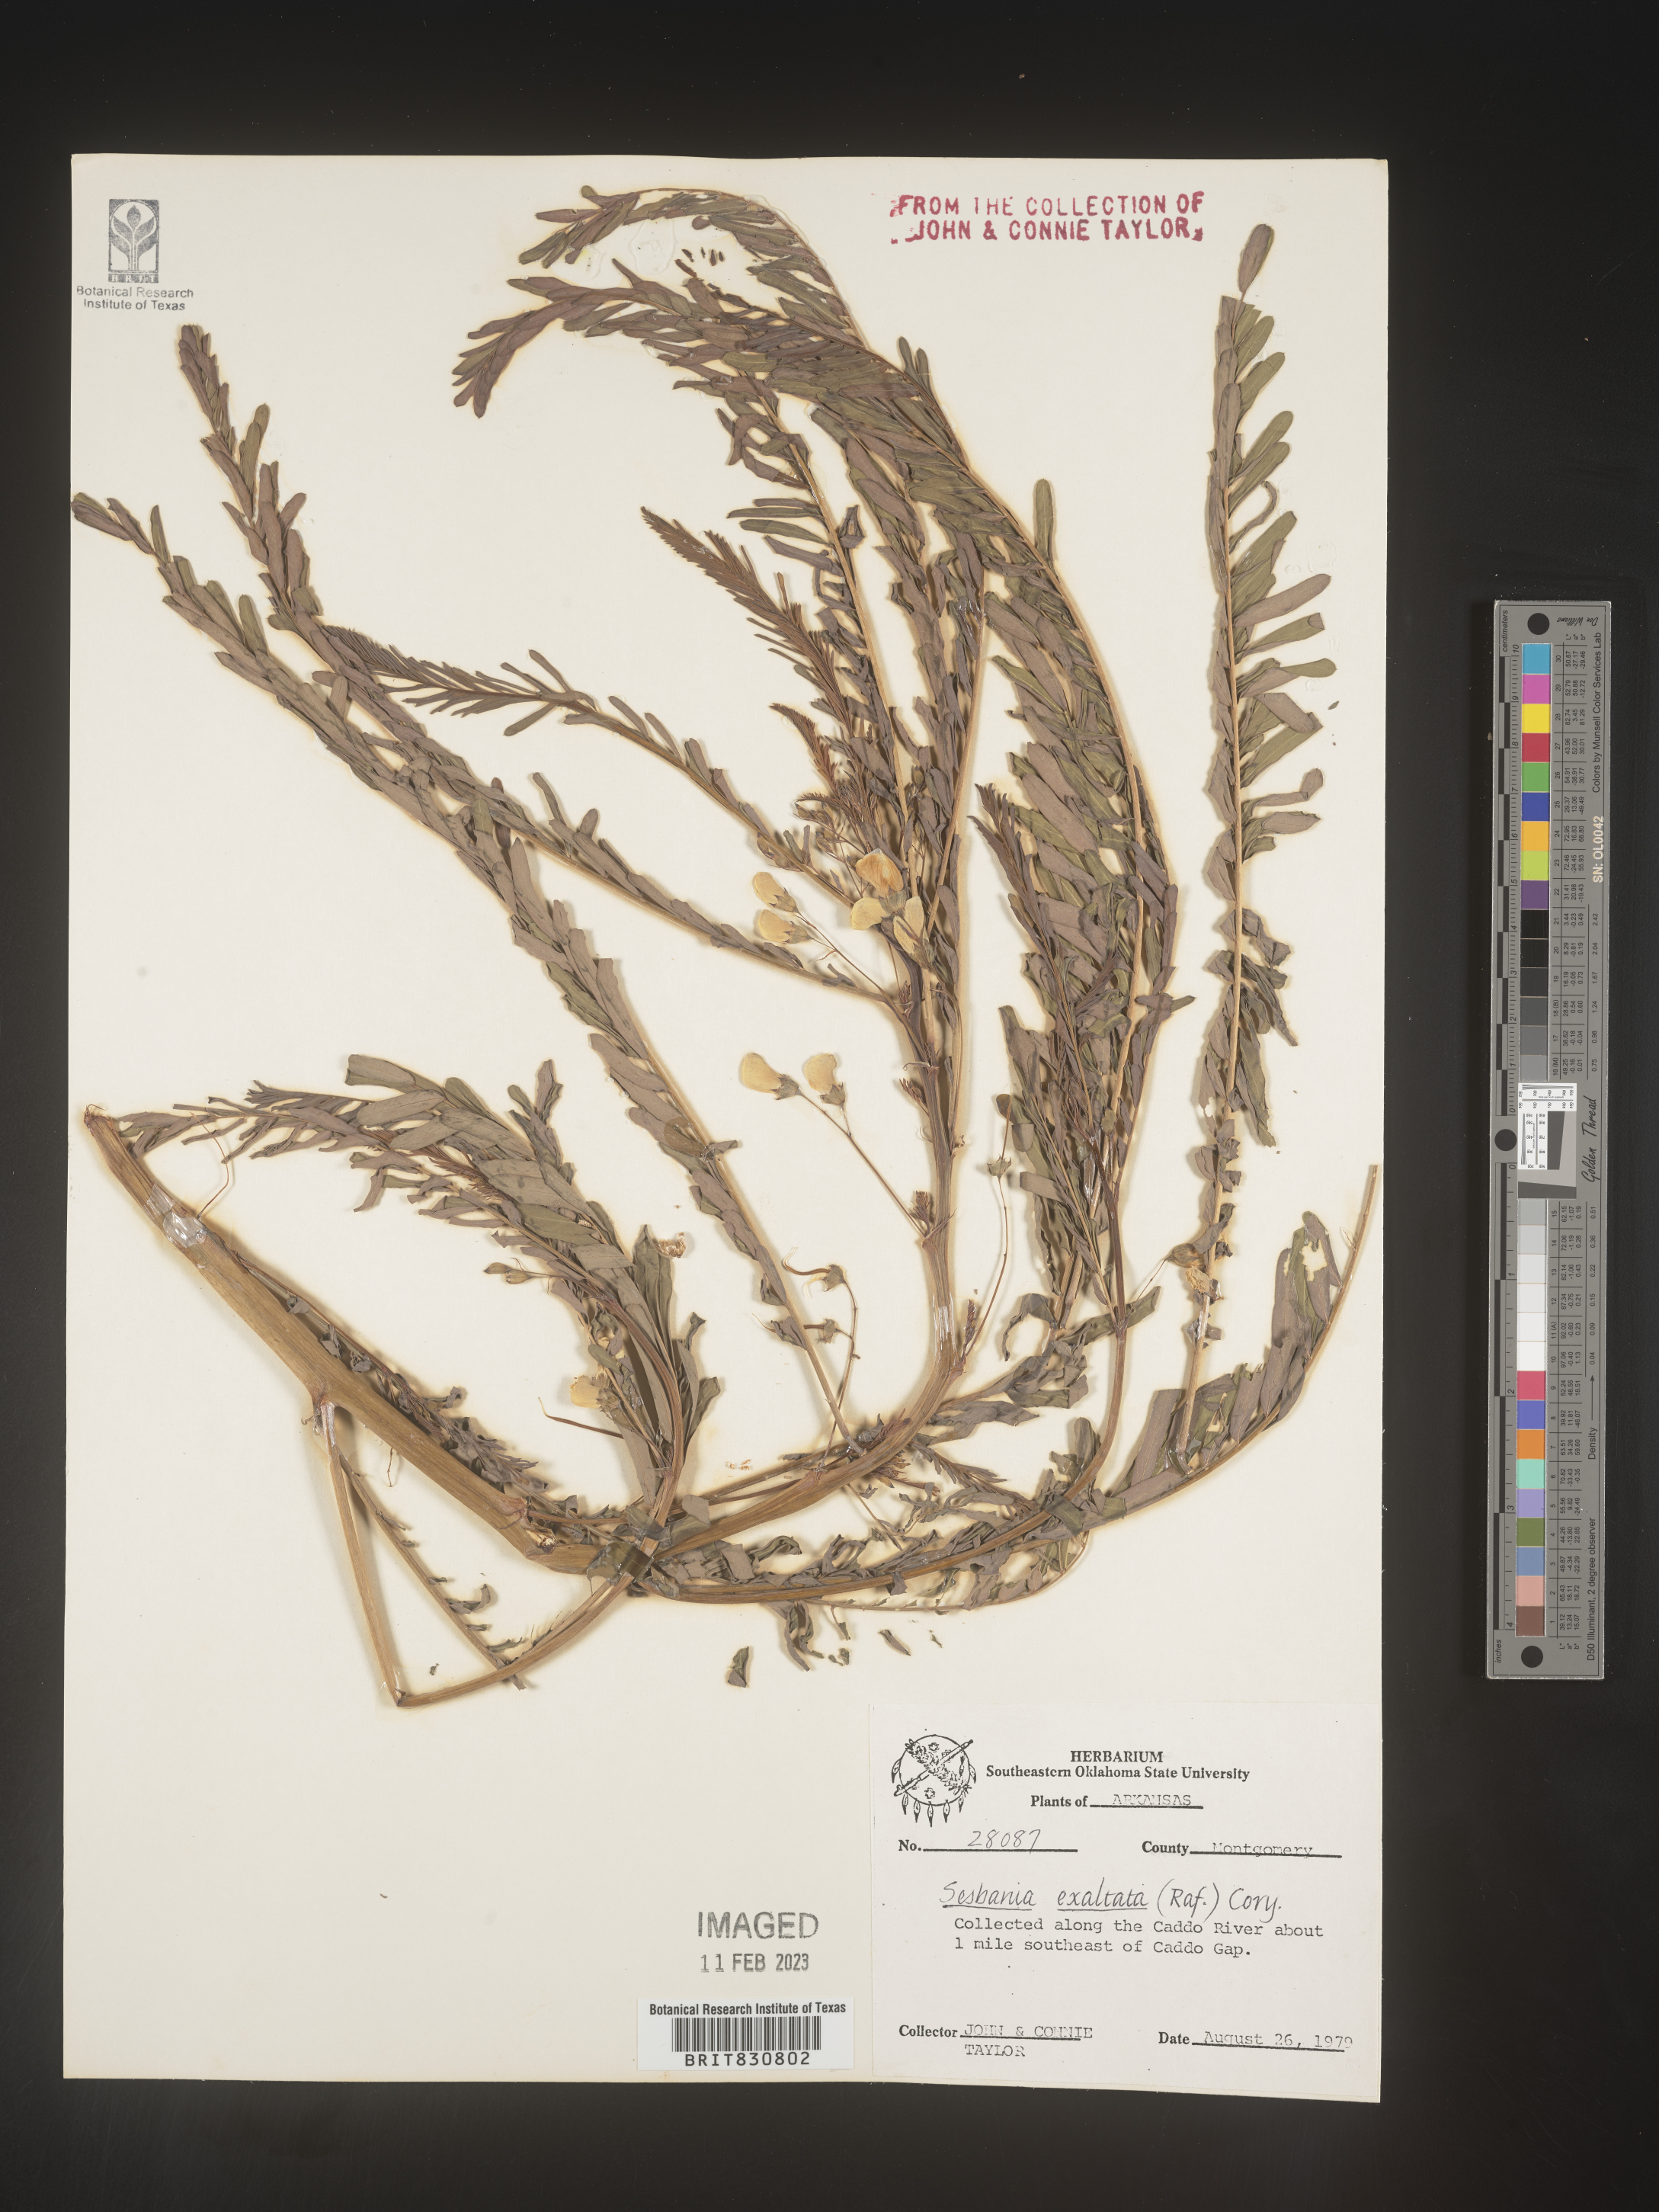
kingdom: Plantae
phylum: Tracheophyta
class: Magnoliopsida
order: Fabales
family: Fabaceae
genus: Sesbania
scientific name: Sesbania herbacea
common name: Bigpod sesbania
